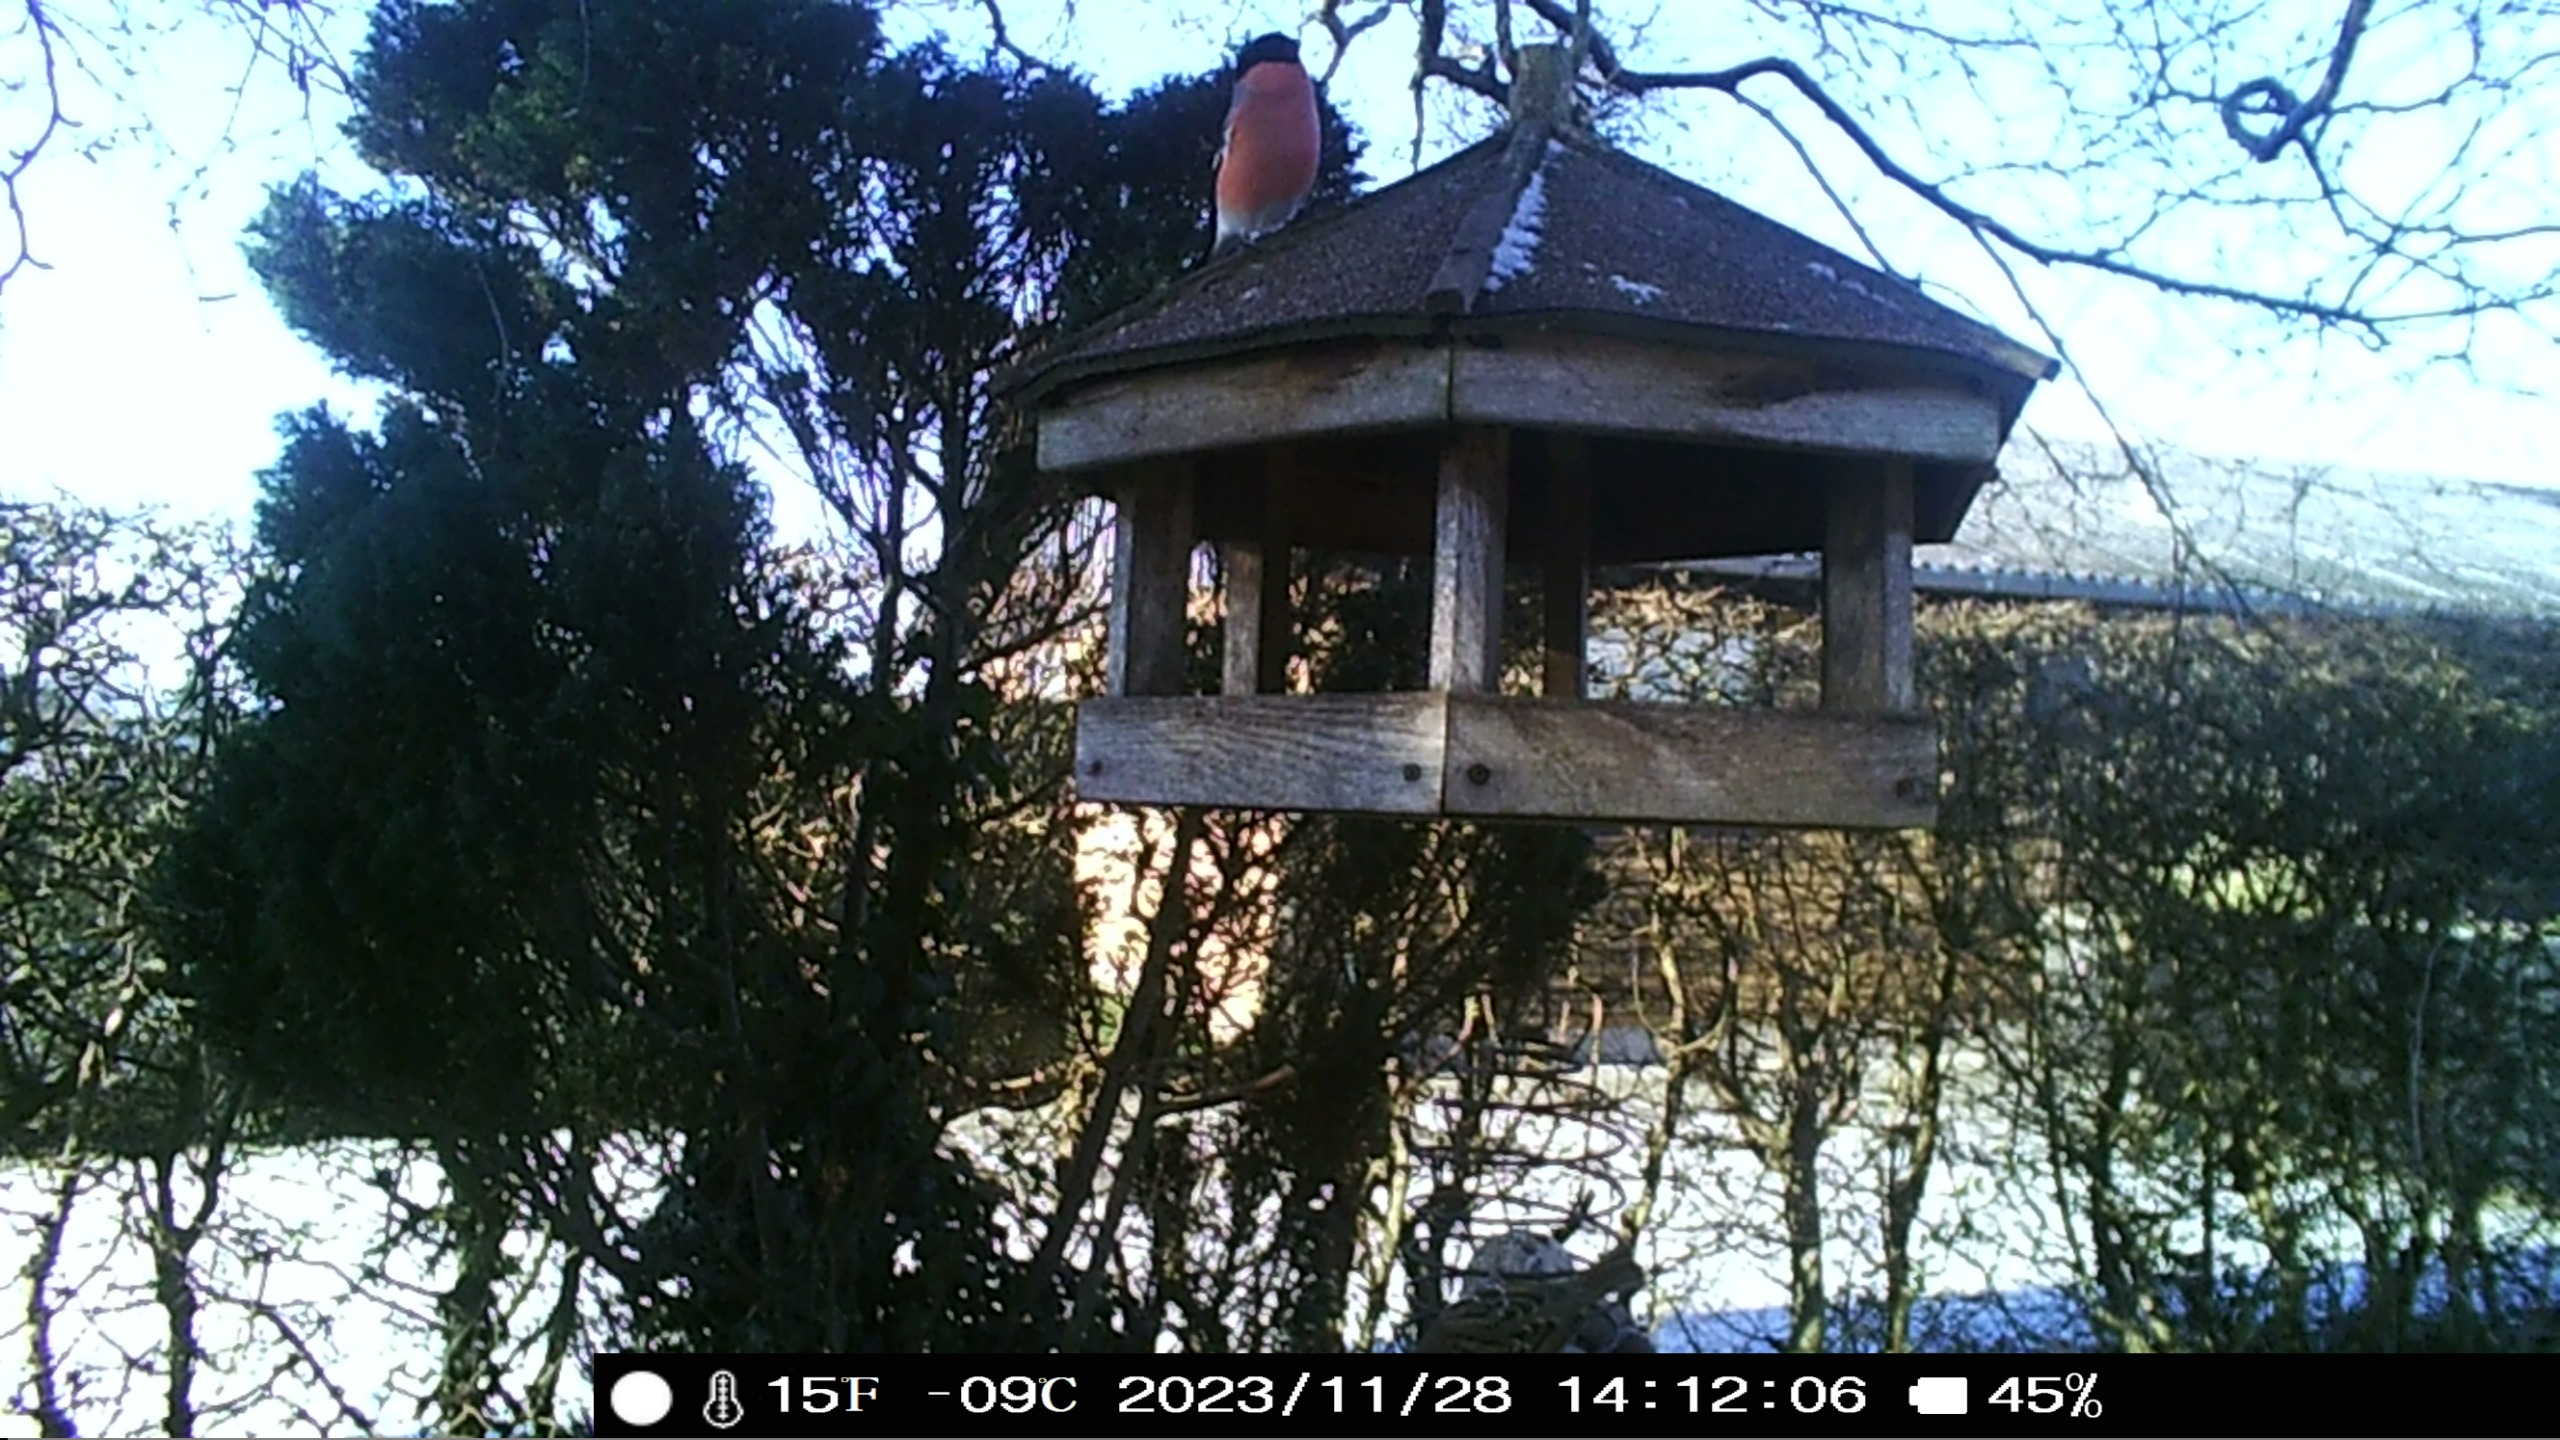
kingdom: Animalia
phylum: Chordata
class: Aves
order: Passeriformes
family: Fringillidae
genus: Pyrrhula
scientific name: Pyrrhula pyrrhula
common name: Dompap
